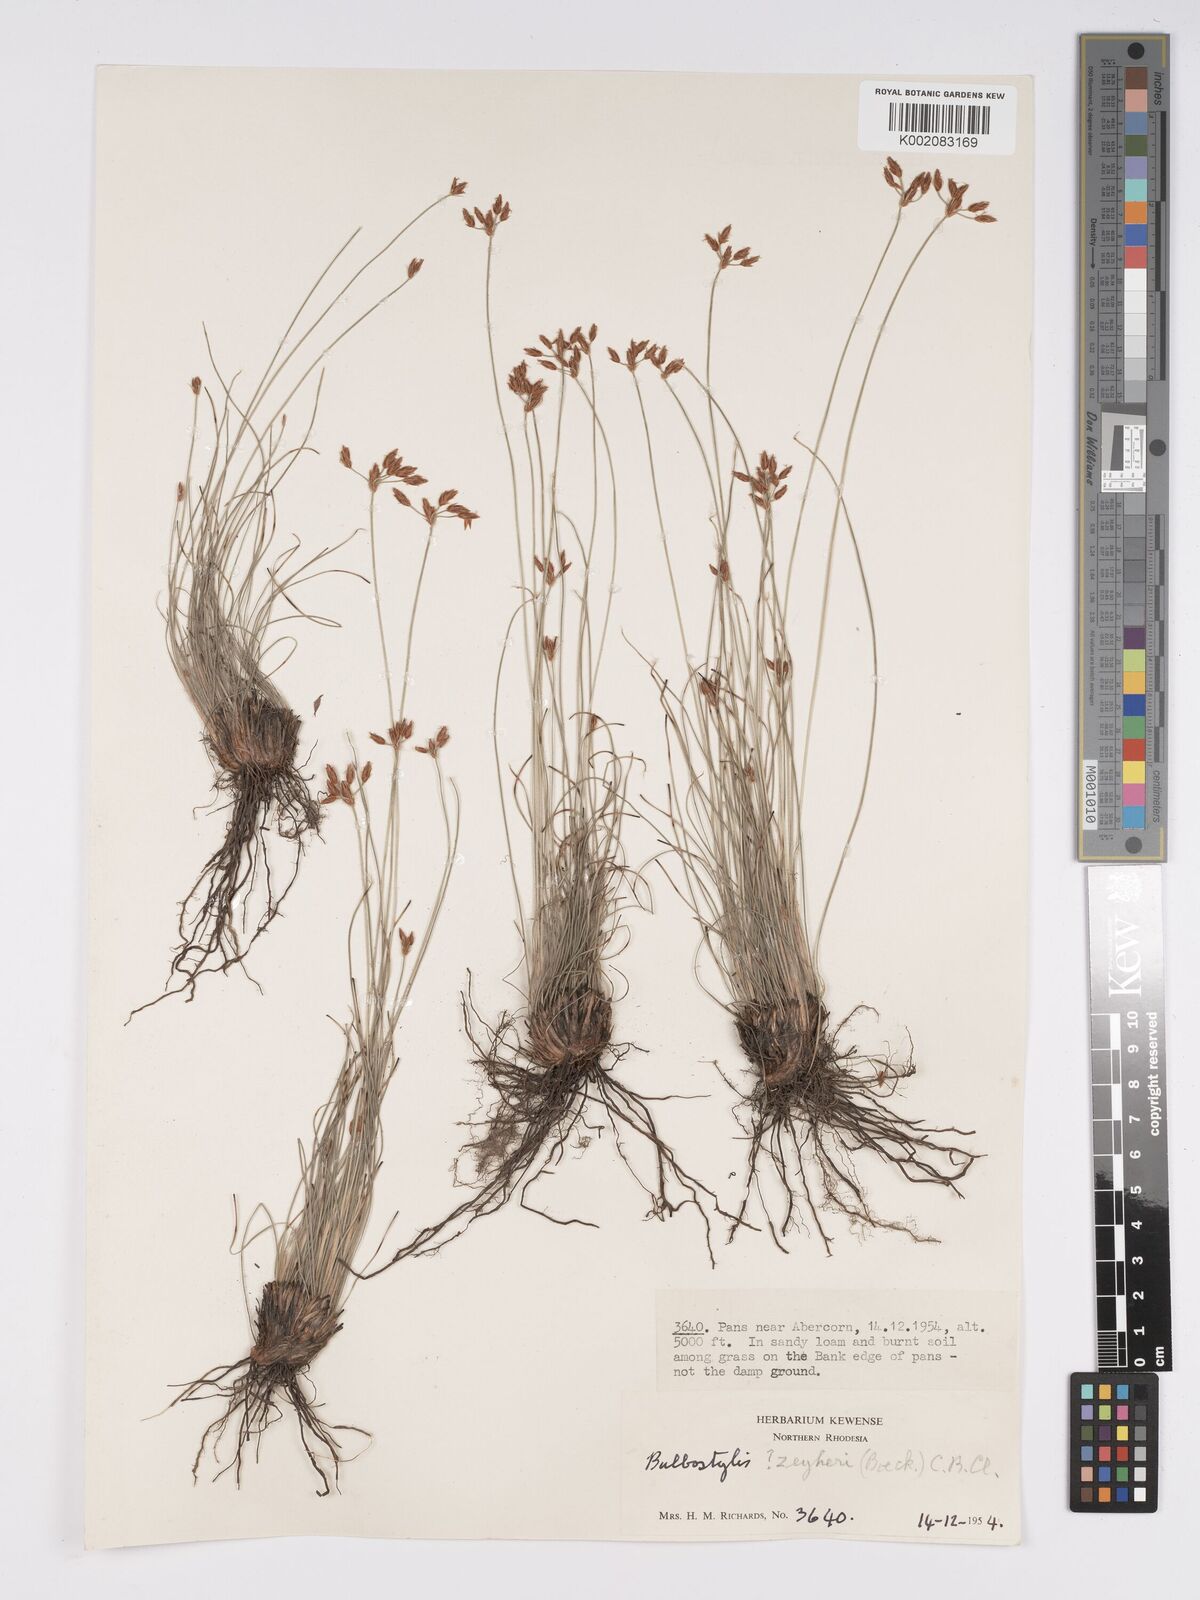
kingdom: Plantae
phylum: Tracheophyta
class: Liliopsida
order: Poales
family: Cyperaceae
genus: Bulbostylis
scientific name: Bulbostylis contexta
